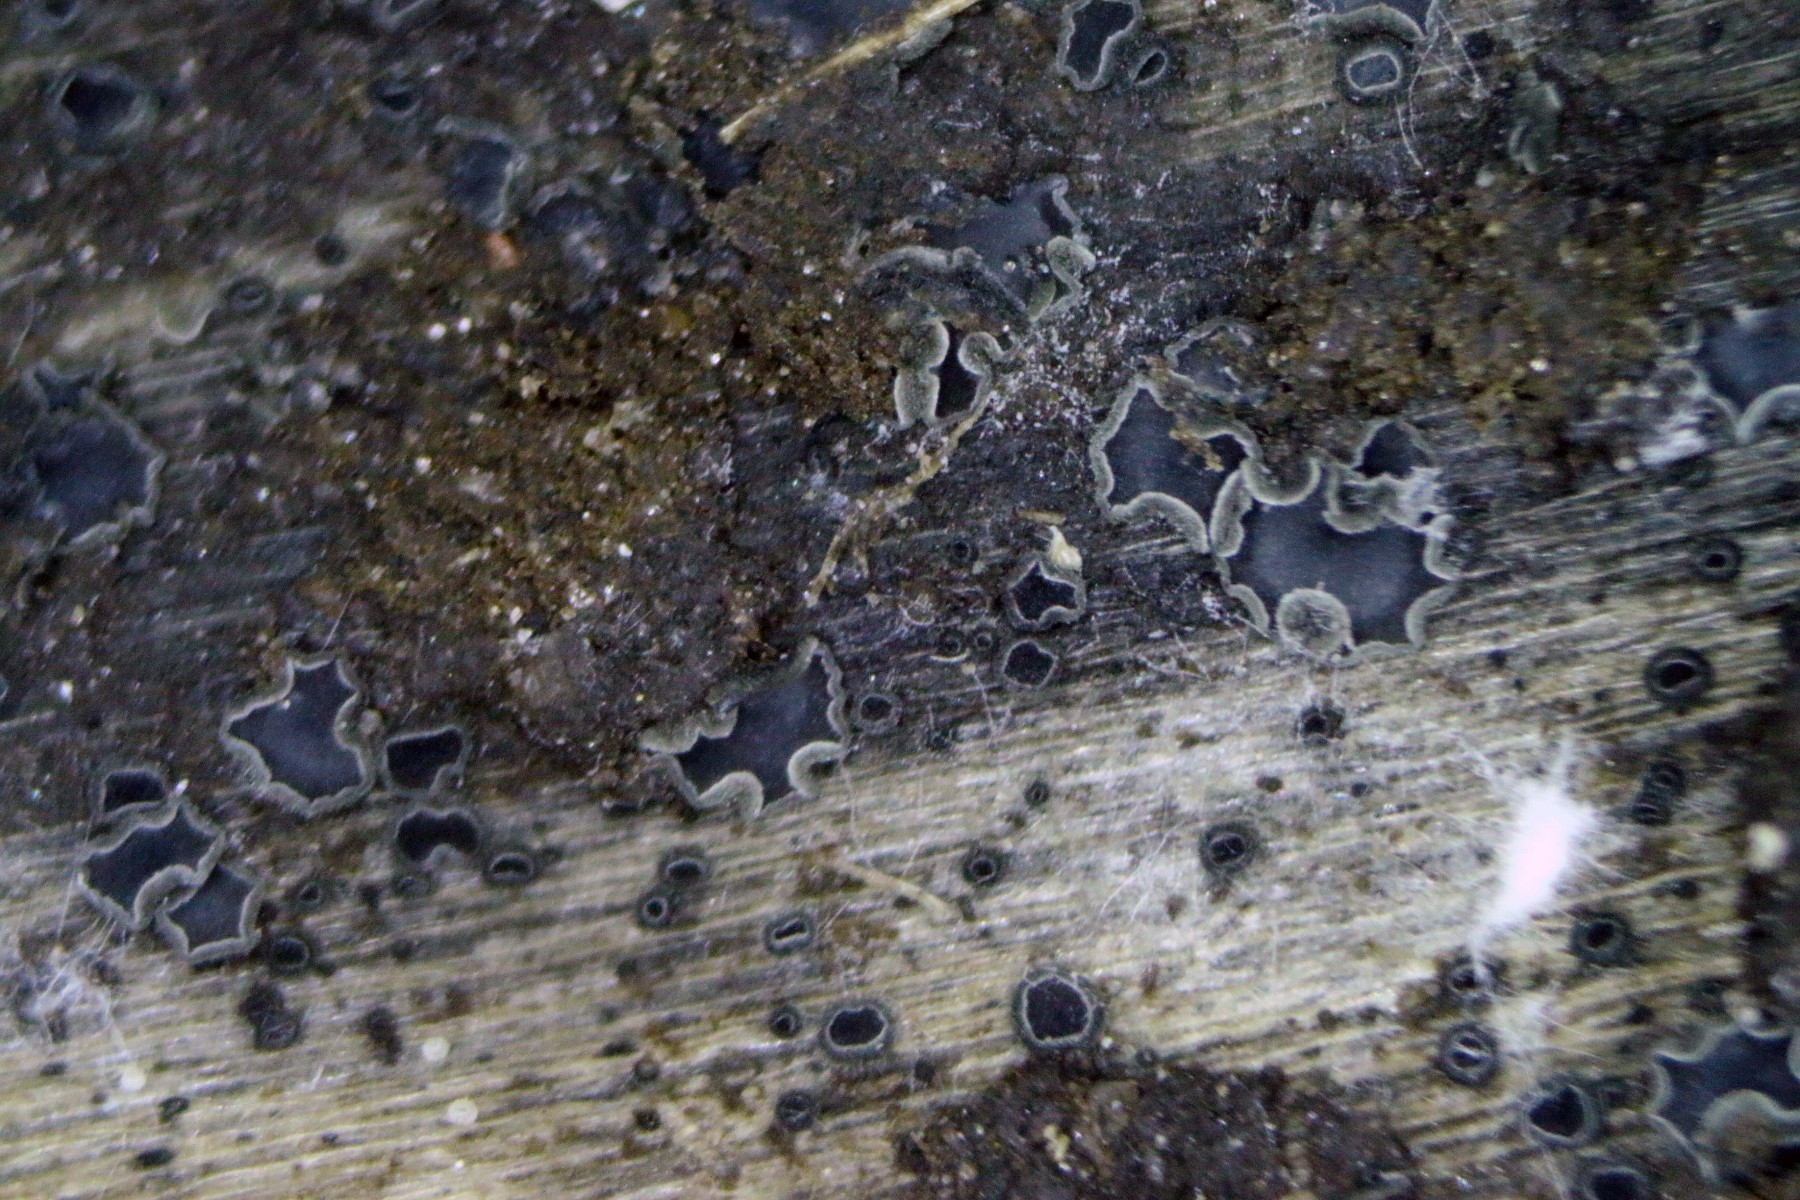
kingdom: Fungi
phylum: Ascomycota
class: Leotiomycetes
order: Helotiales
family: Ploettnerulaceae
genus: Pyrenopeziza
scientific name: Pyrenopeziza pastinacae
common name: stængel-kerneskive
